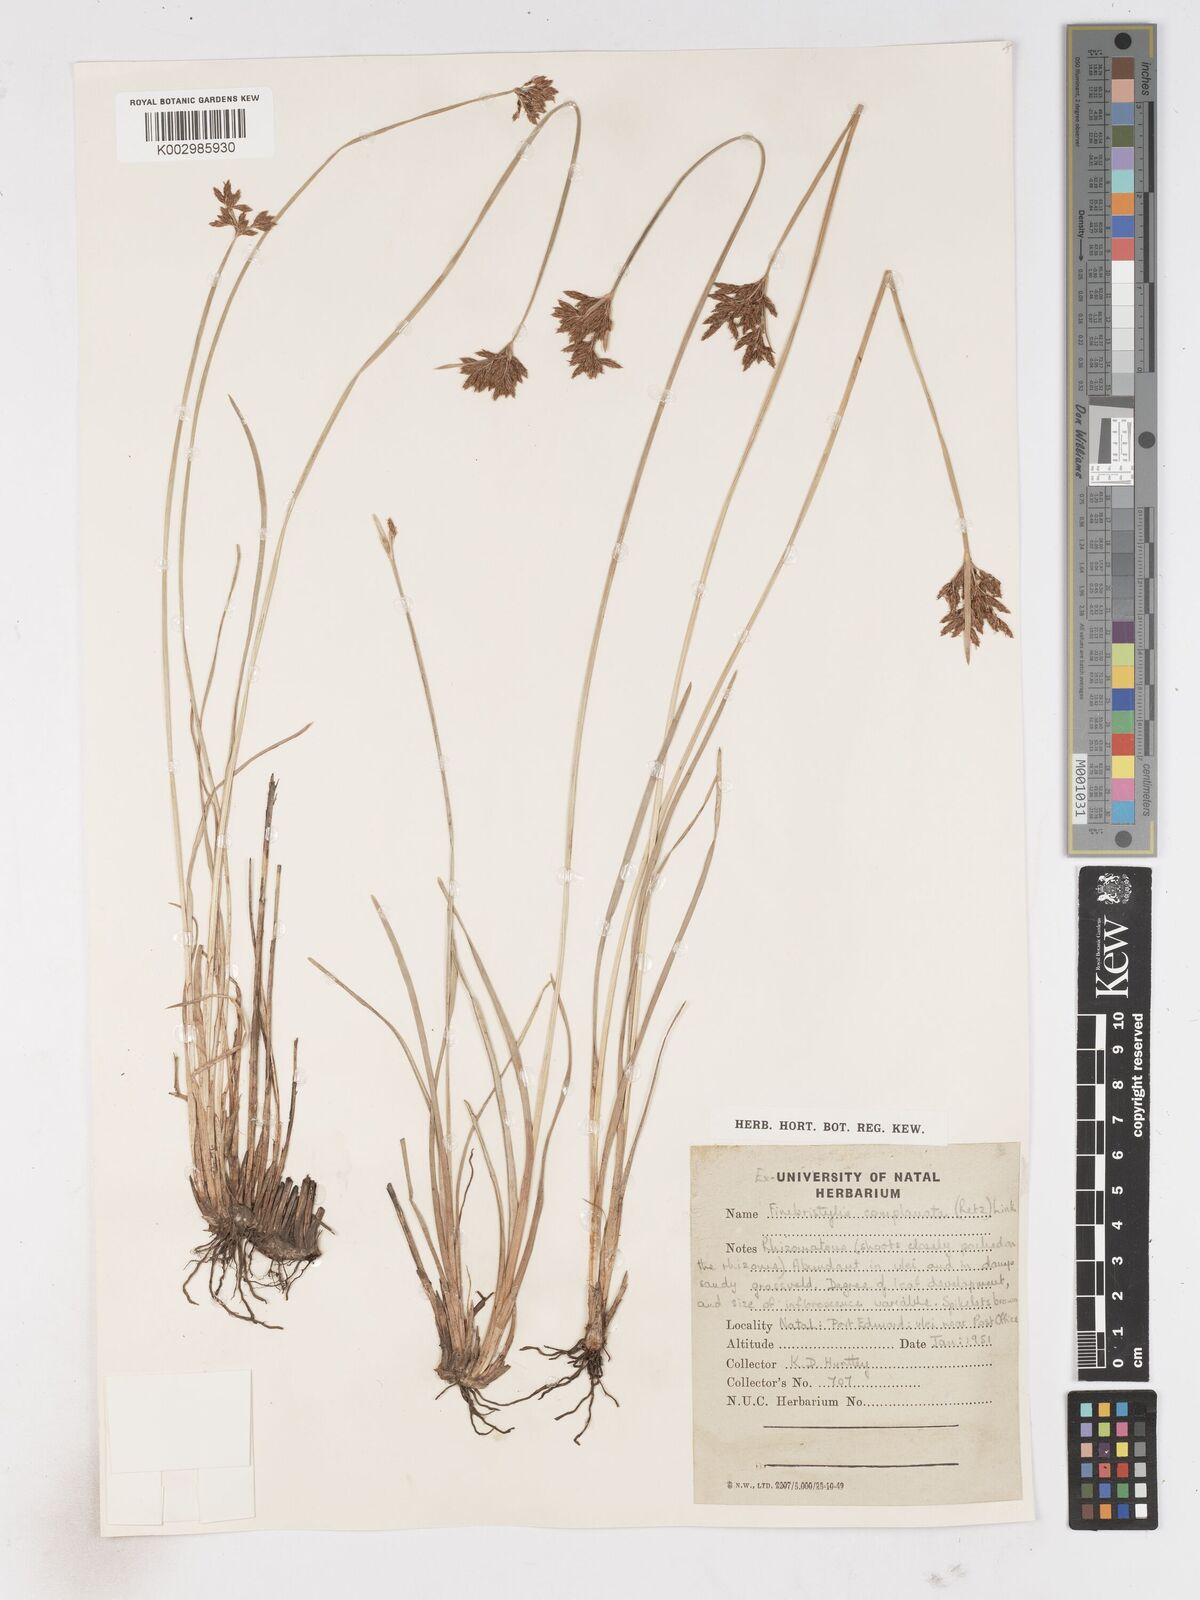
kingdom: Plantae
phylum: Tracheophyta
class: Liliopsida
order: Poales
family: Cyperaceae
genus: Fimbristylis
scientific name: Fimbristylis complanata
